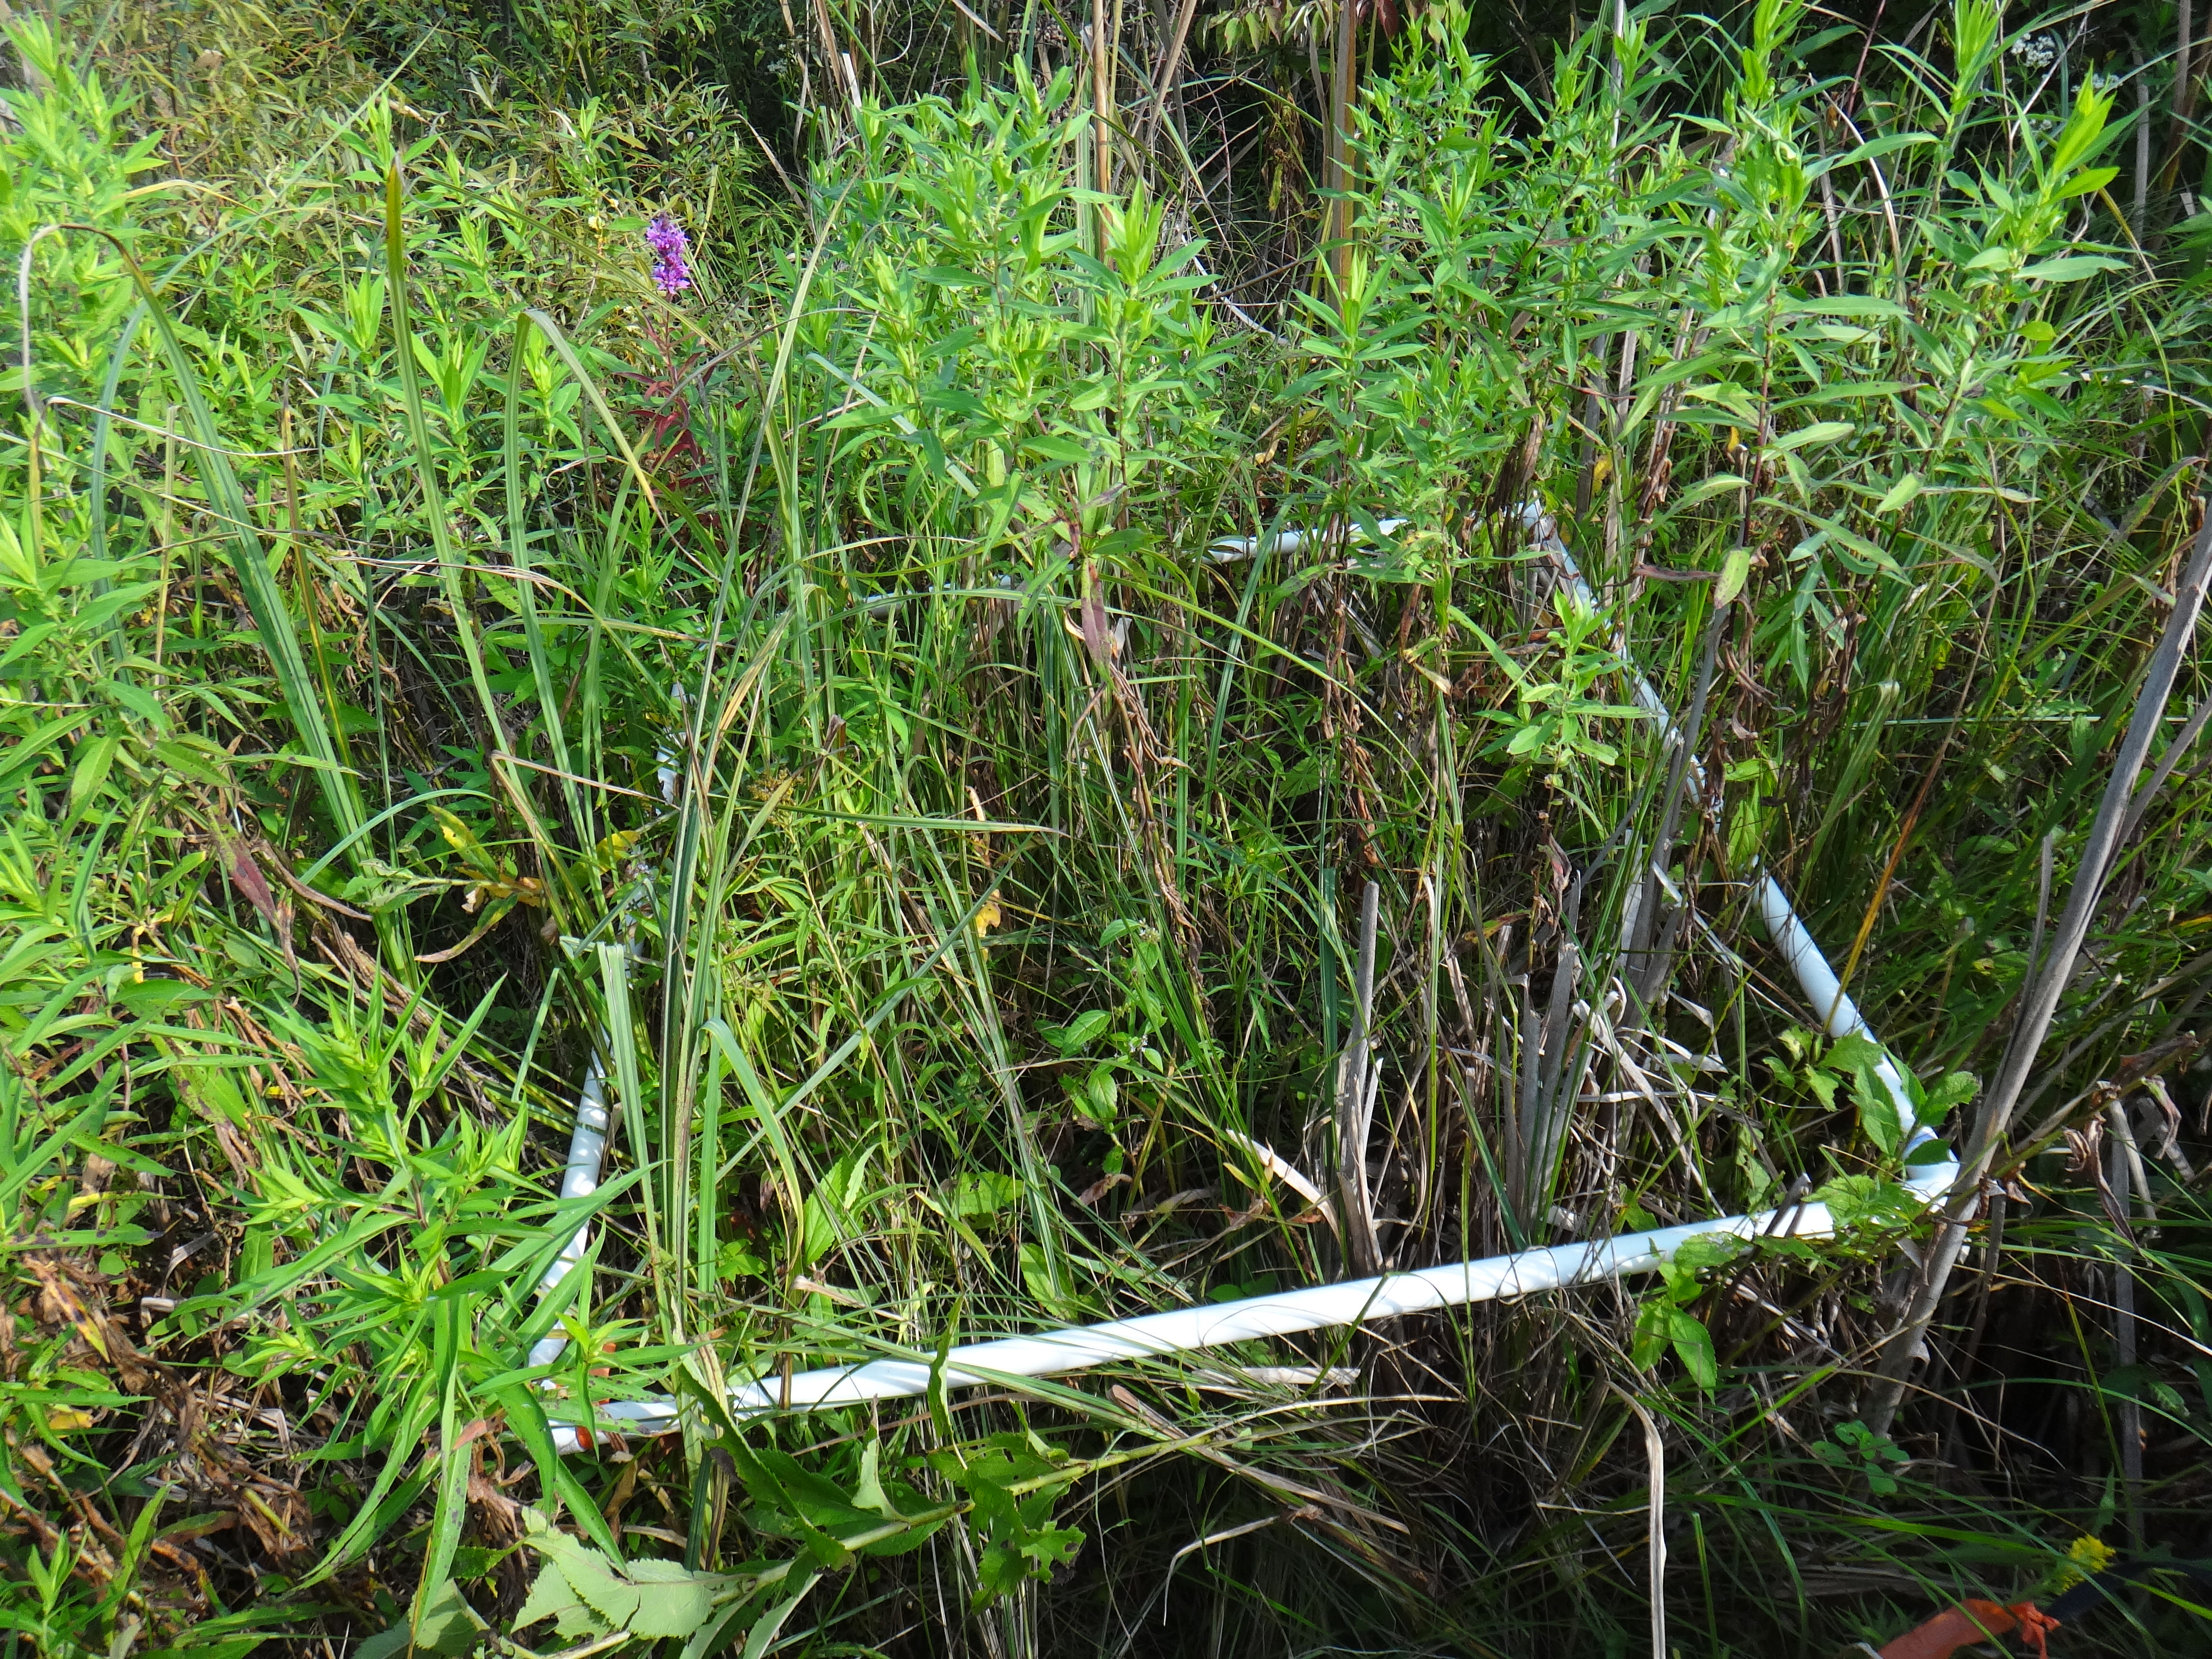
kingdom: Plantae
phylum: Tracheophyta
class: Magnoliopsida
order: Asterales
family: Asteraceae
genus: Solidago
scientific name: Solidago canadensis
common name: Canada goldenrod
